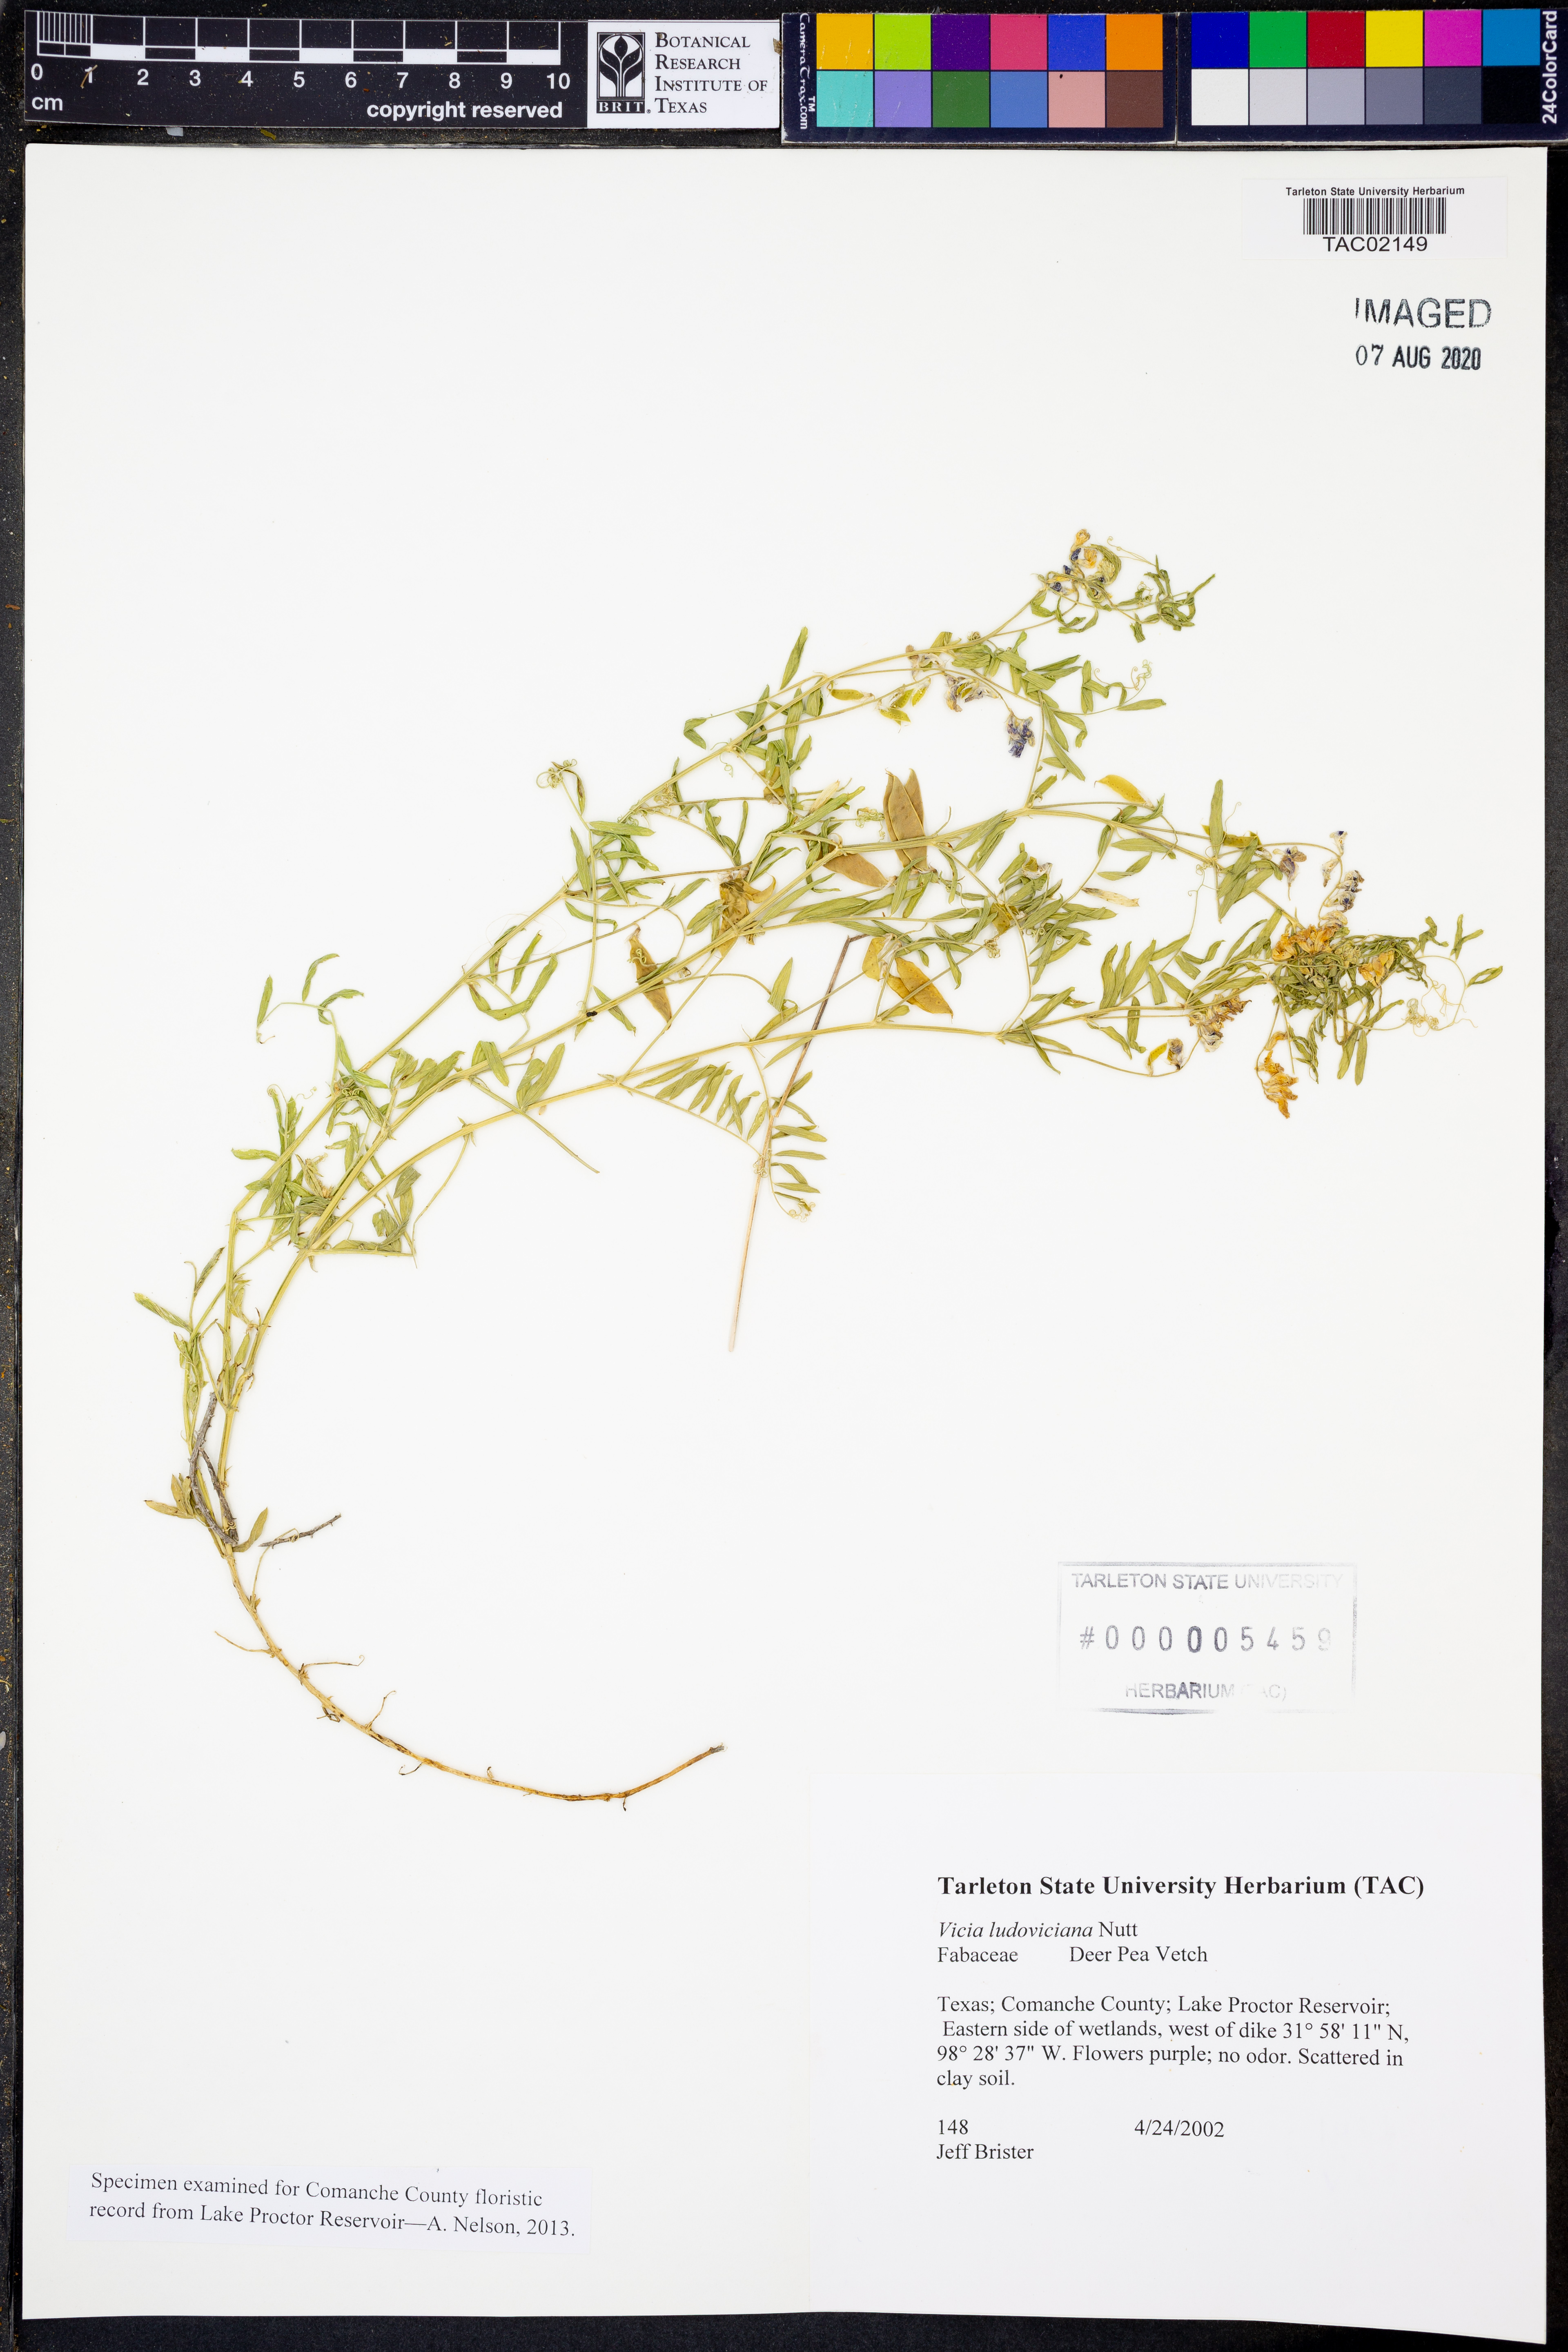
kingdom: Plantae
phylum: Tracheophyta
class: Magnoliopsida
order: Fabales
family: Fabaceae
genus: Vicia
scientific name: Vicia ludoviciana
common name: Louisiana vetch
